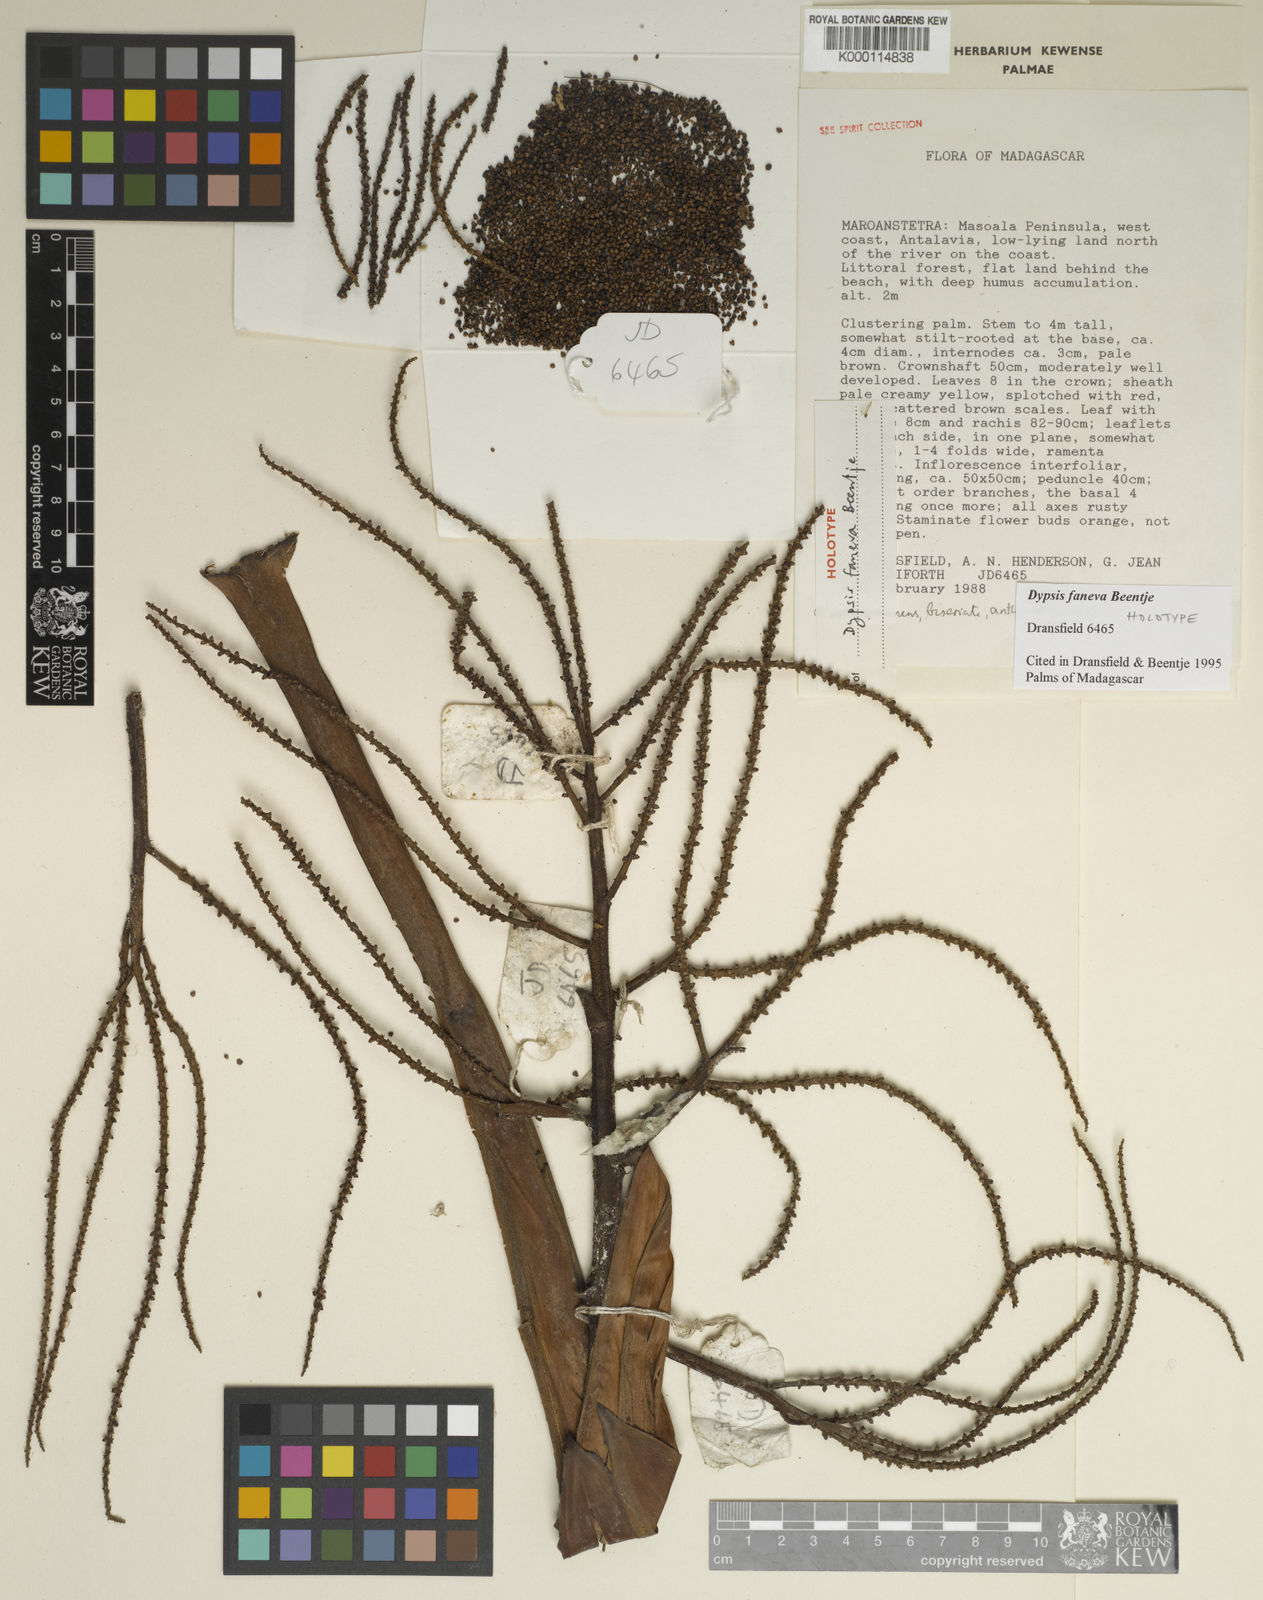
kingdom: Plantae
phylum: Tracheophyta
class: Liliopsida
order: Arecales
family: Arecaceae
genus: Dypsis
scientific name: Dypsis faneva
